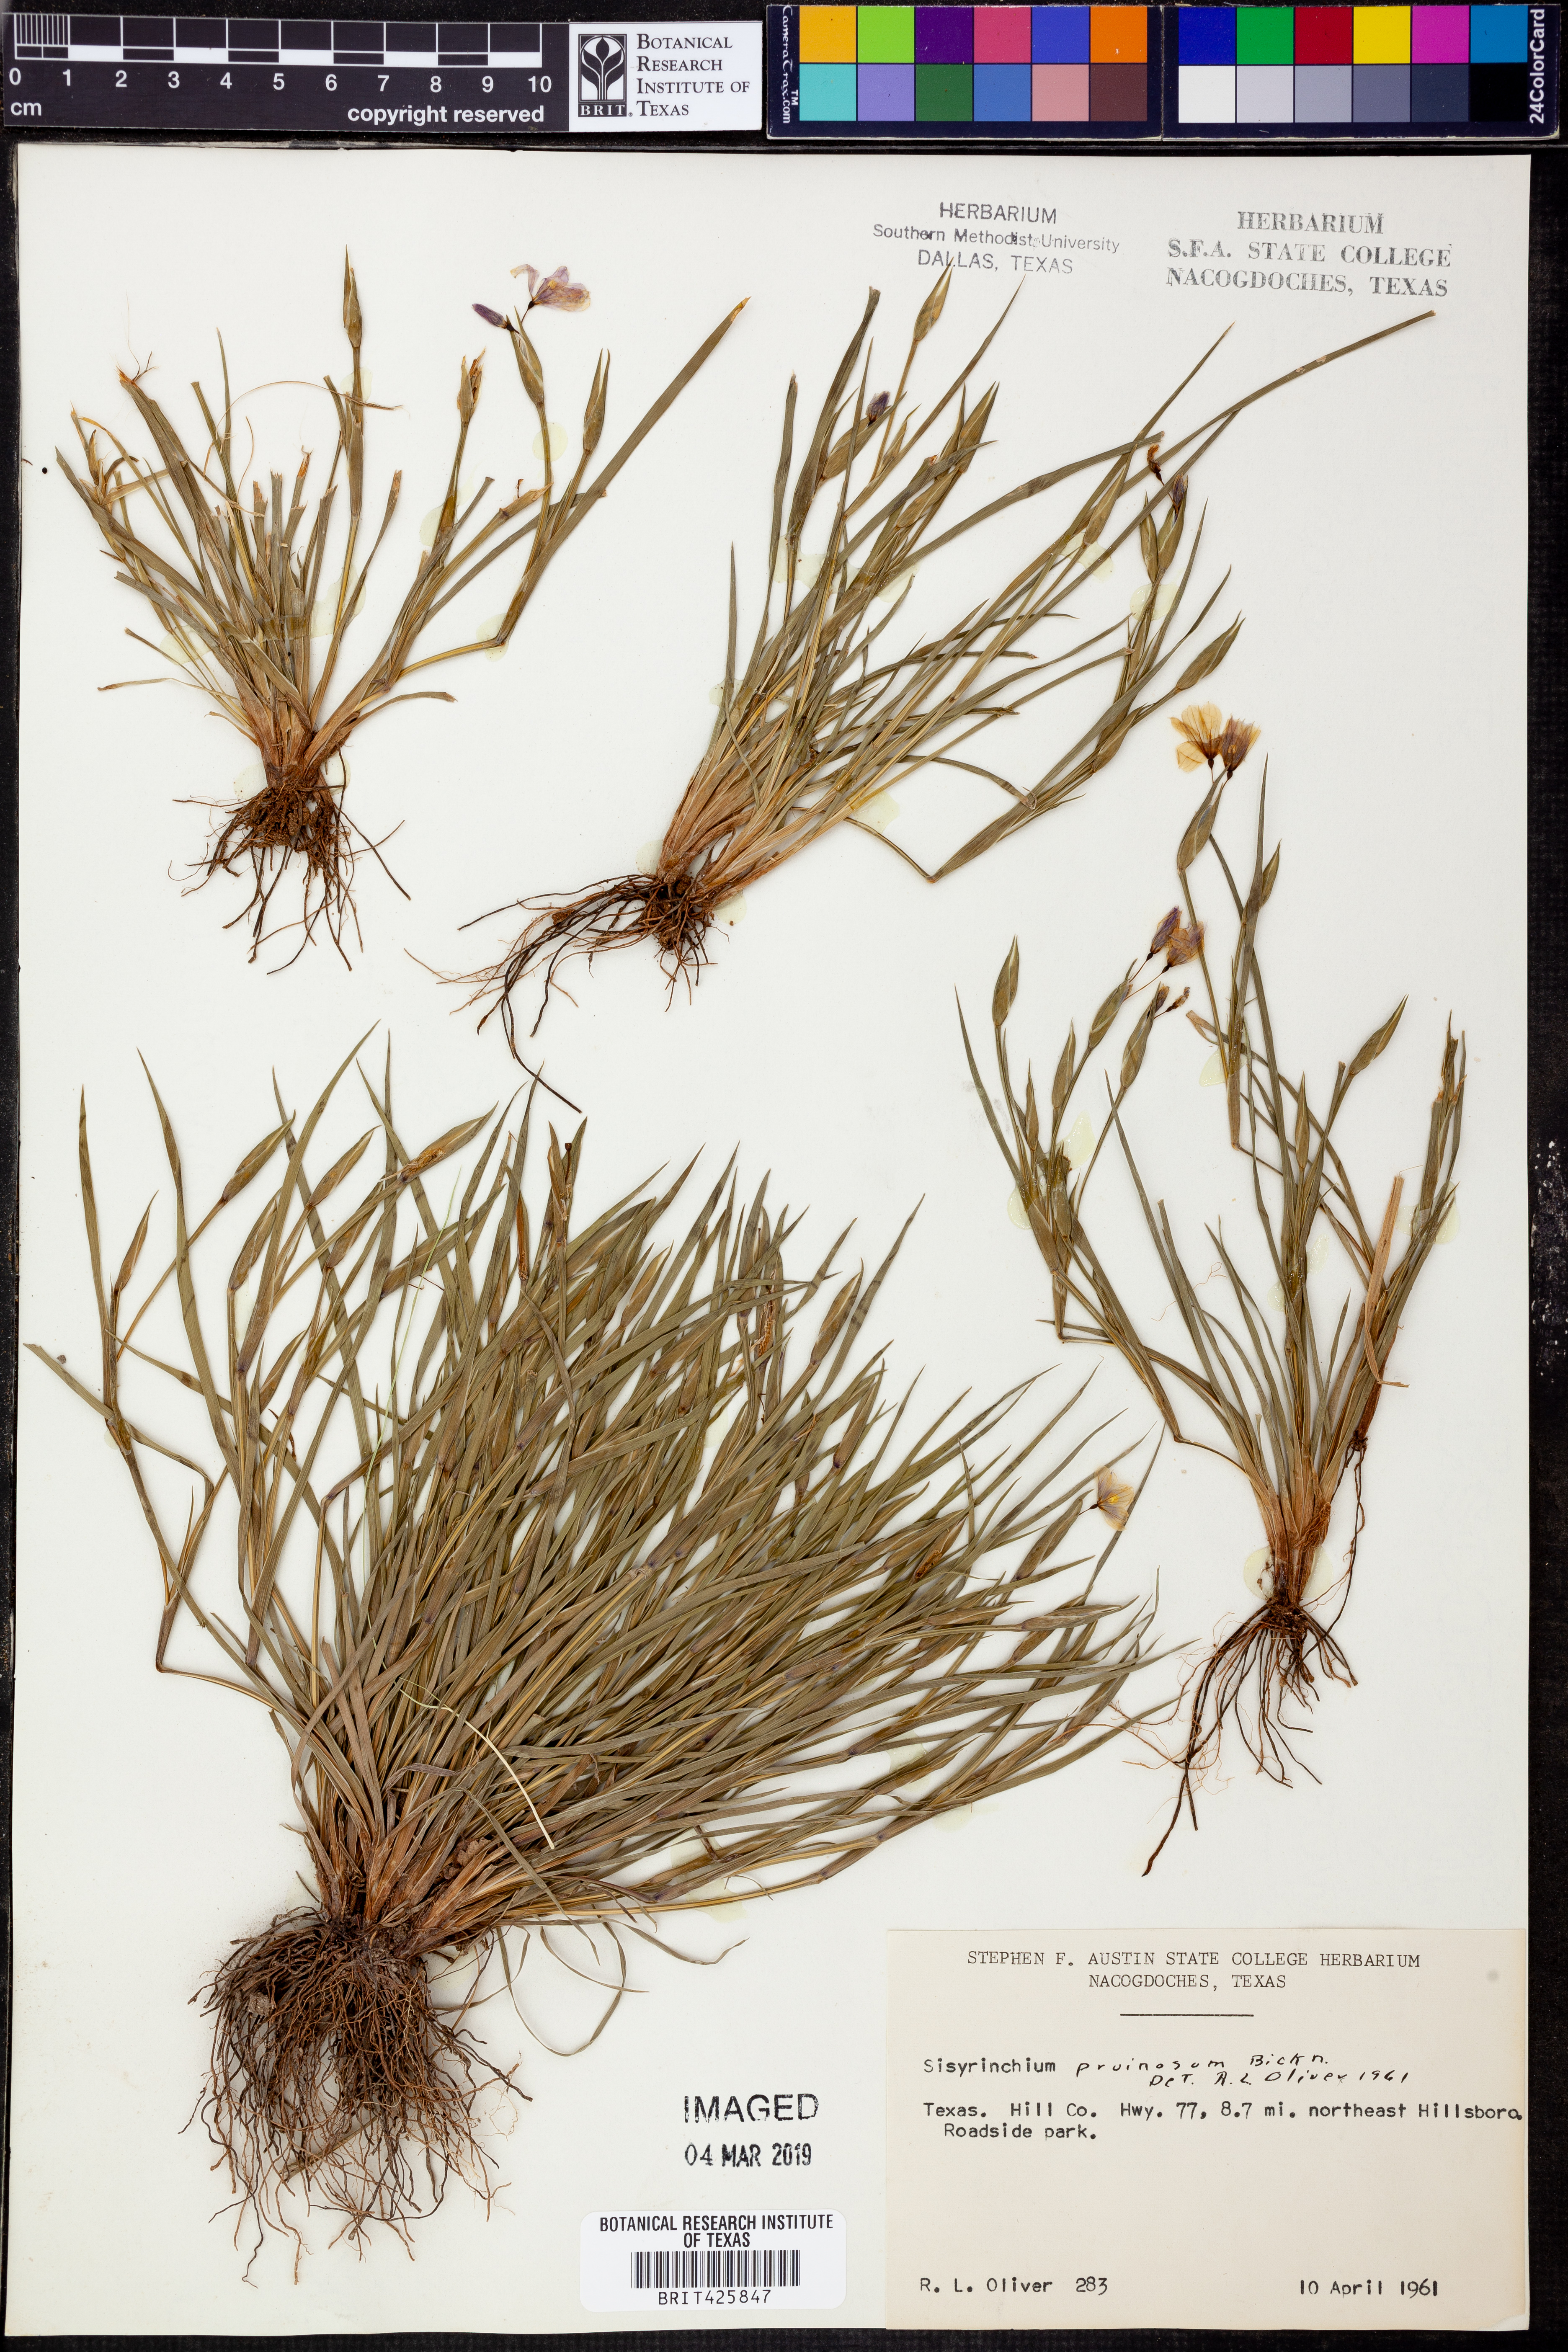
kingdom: Plantae
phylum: Tracheophyta
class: Liliopsida
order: Asparagales
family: Iridaceae
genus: Sisyrinchium
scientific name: Sisyrinchium pruinosum
